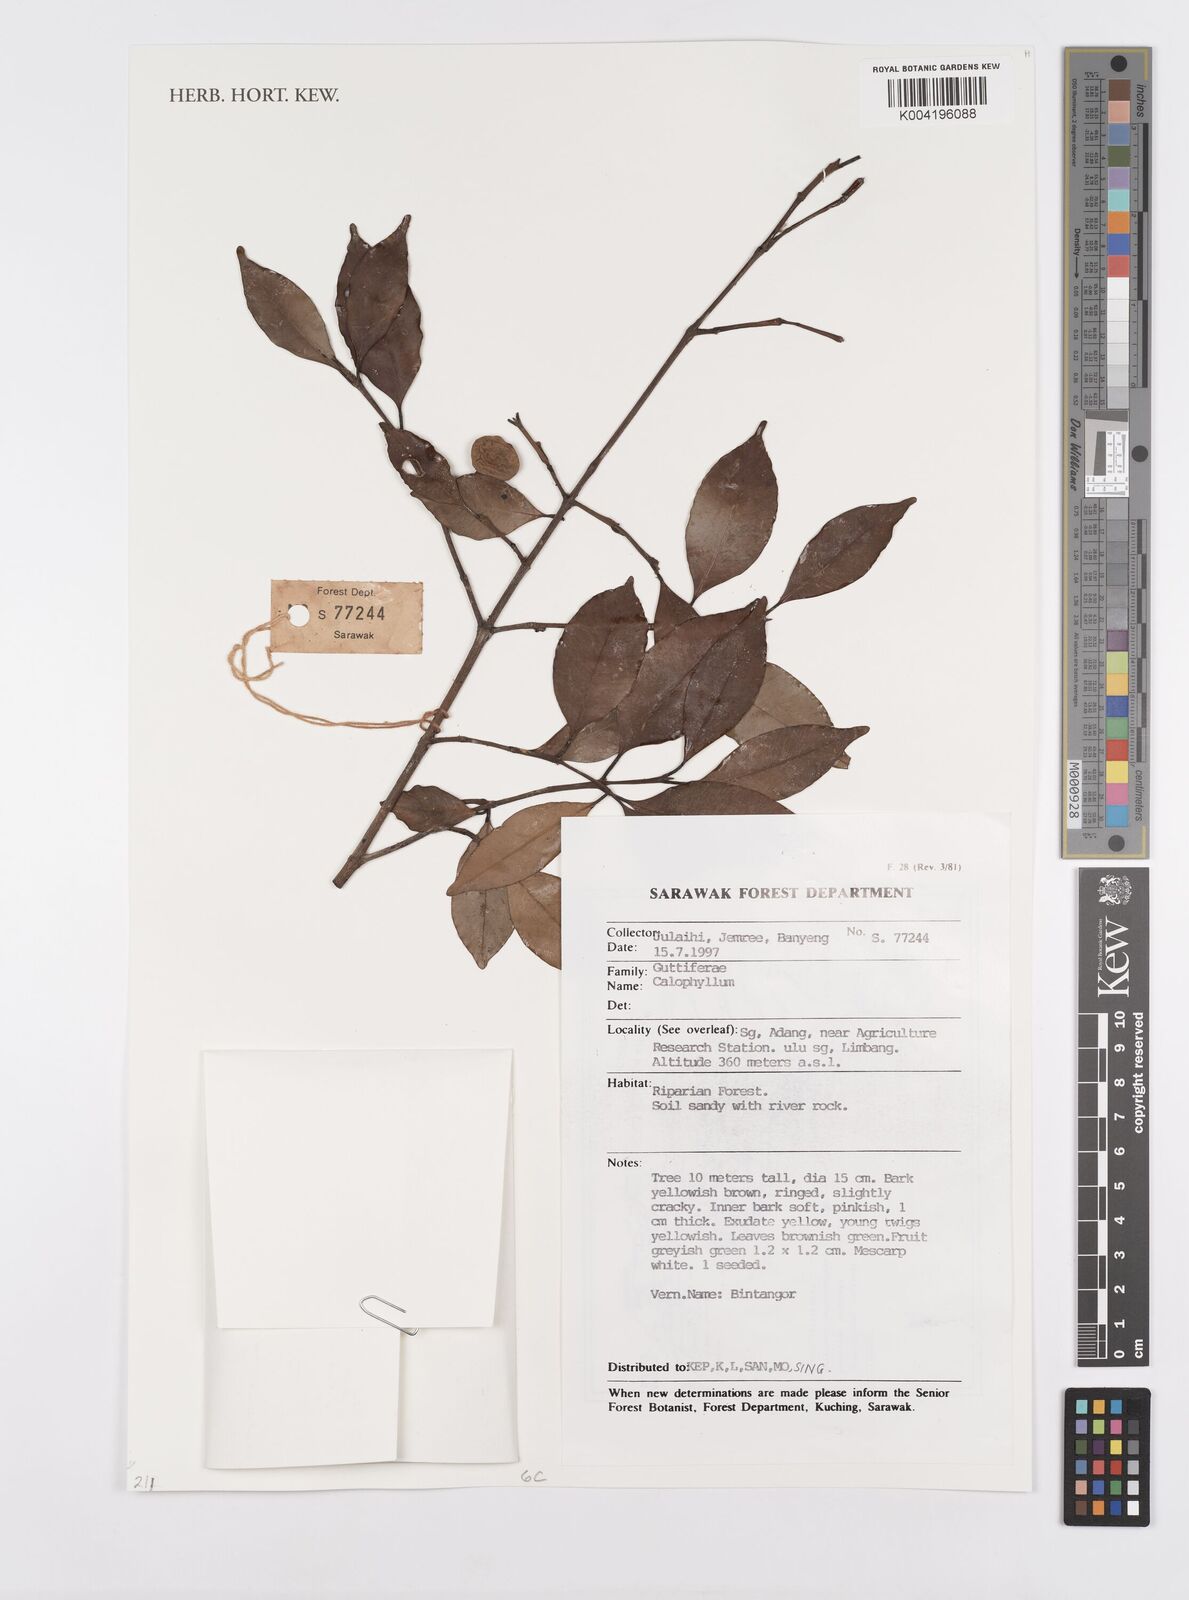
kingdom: Plantae
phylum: Tracheophyta
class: Magnoliopsida
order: Malpighiales
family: Calophyllaceae
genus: Calophyllum
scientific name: Calophyllum
